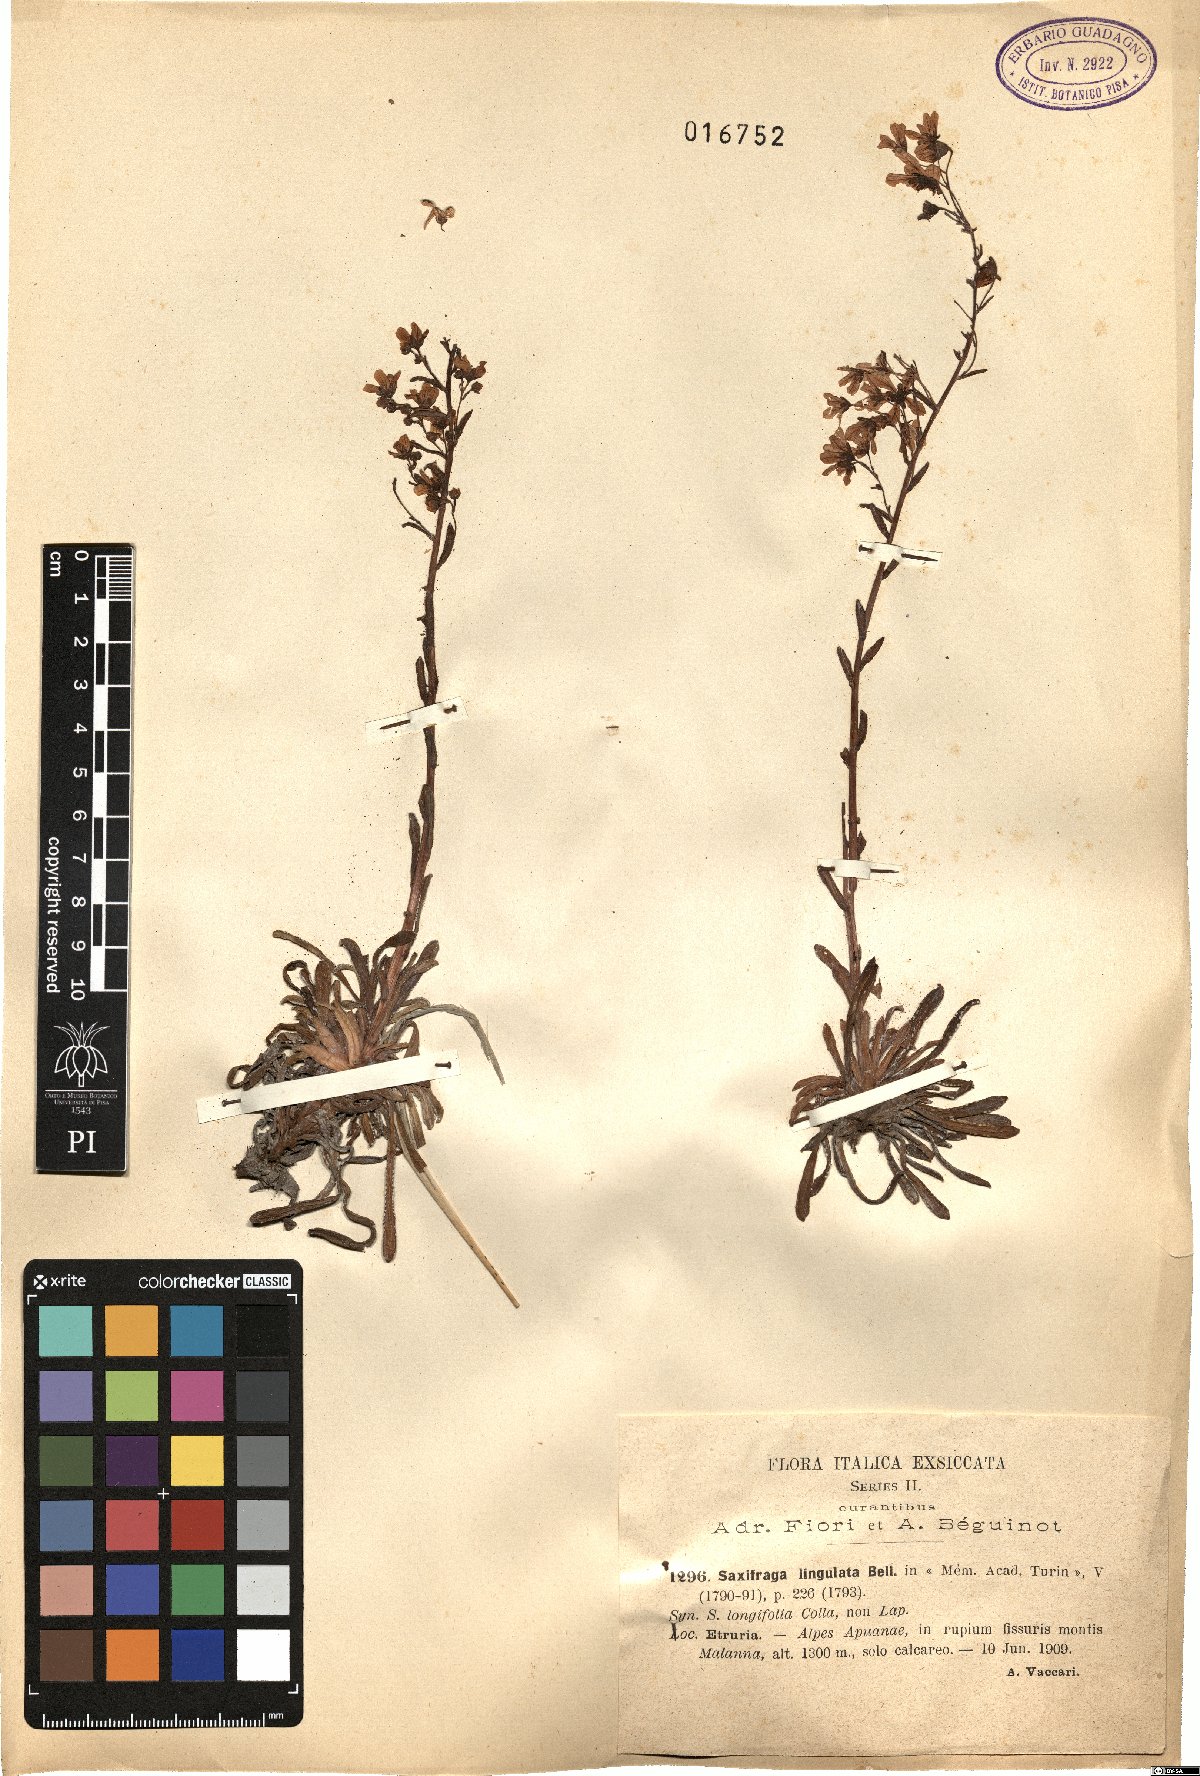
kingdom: Plantae
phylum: Tracheophyta
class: Magnoliopsida
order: Saxifragales
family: Saxifragaceae
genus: Saxifraga
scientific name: Saxifraga callosa
